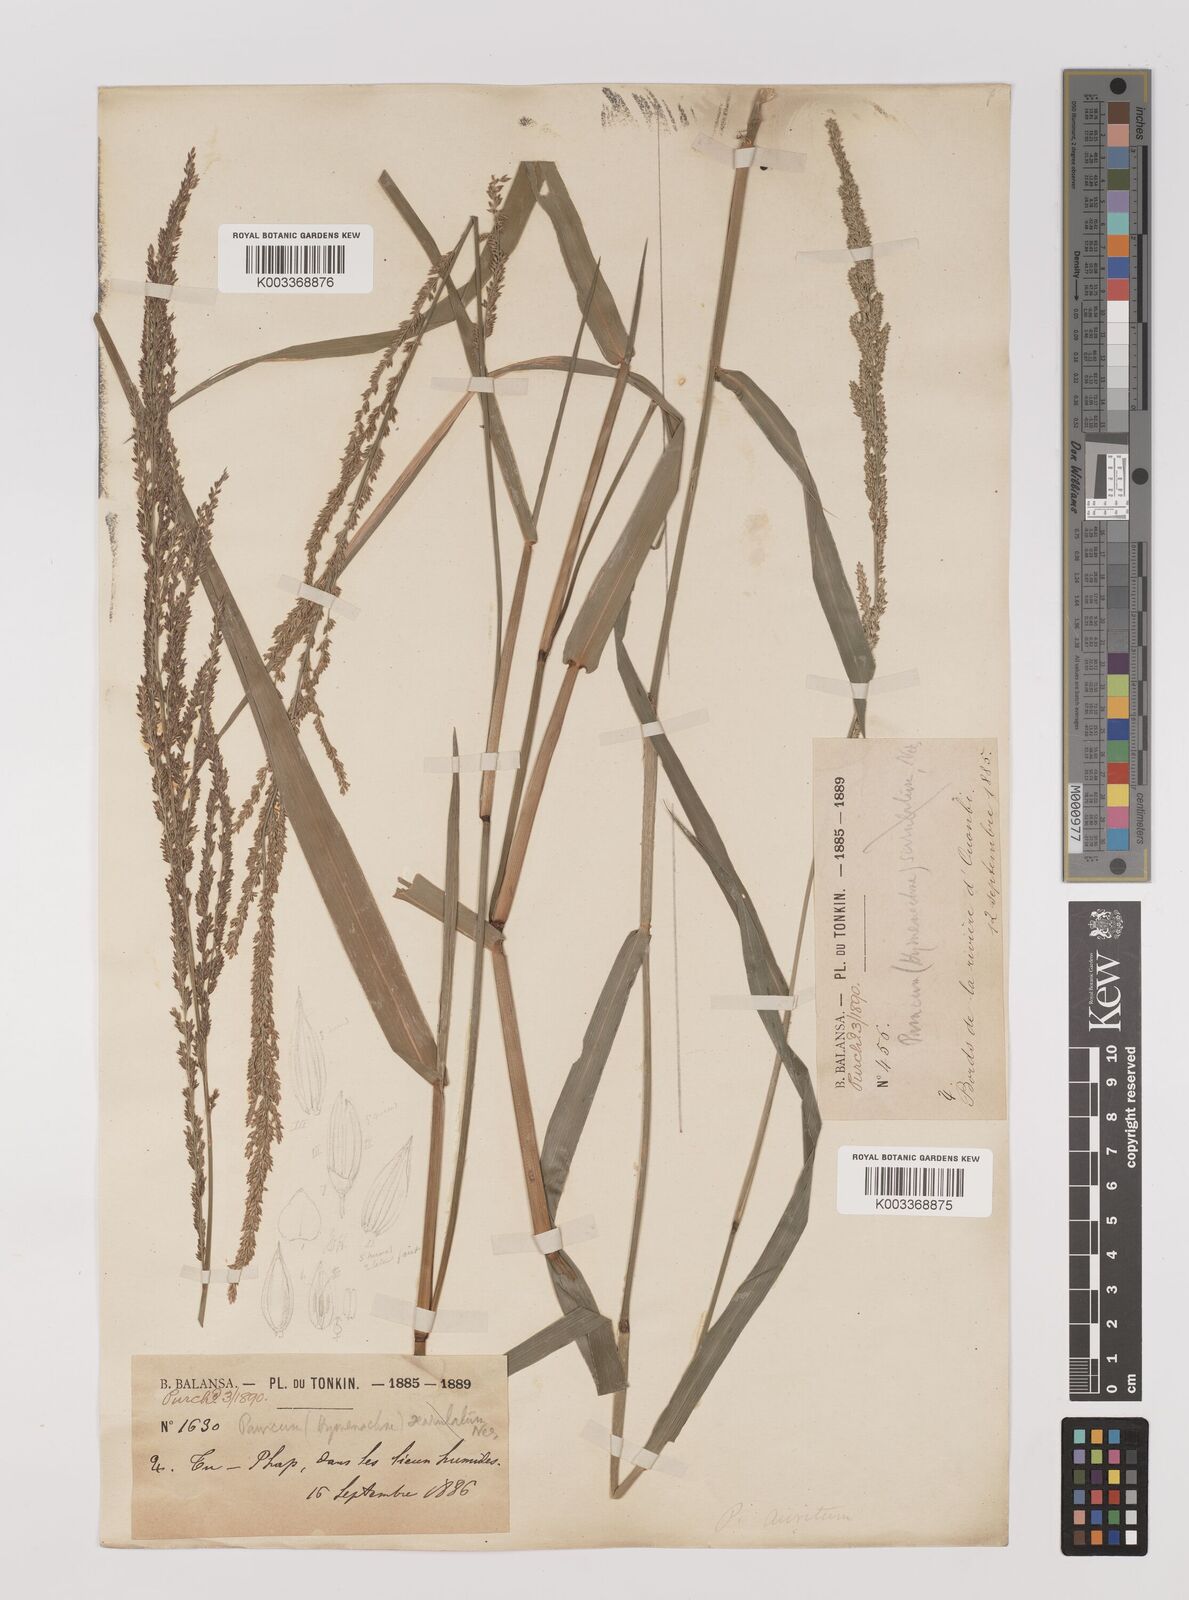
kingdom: Plantae
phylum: Tracheophyta
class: Liliopsida
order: Poales
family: Poaceae
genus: Hymenachne
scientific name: Hymenachne amplexicaulis
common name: Olive hymenachne
